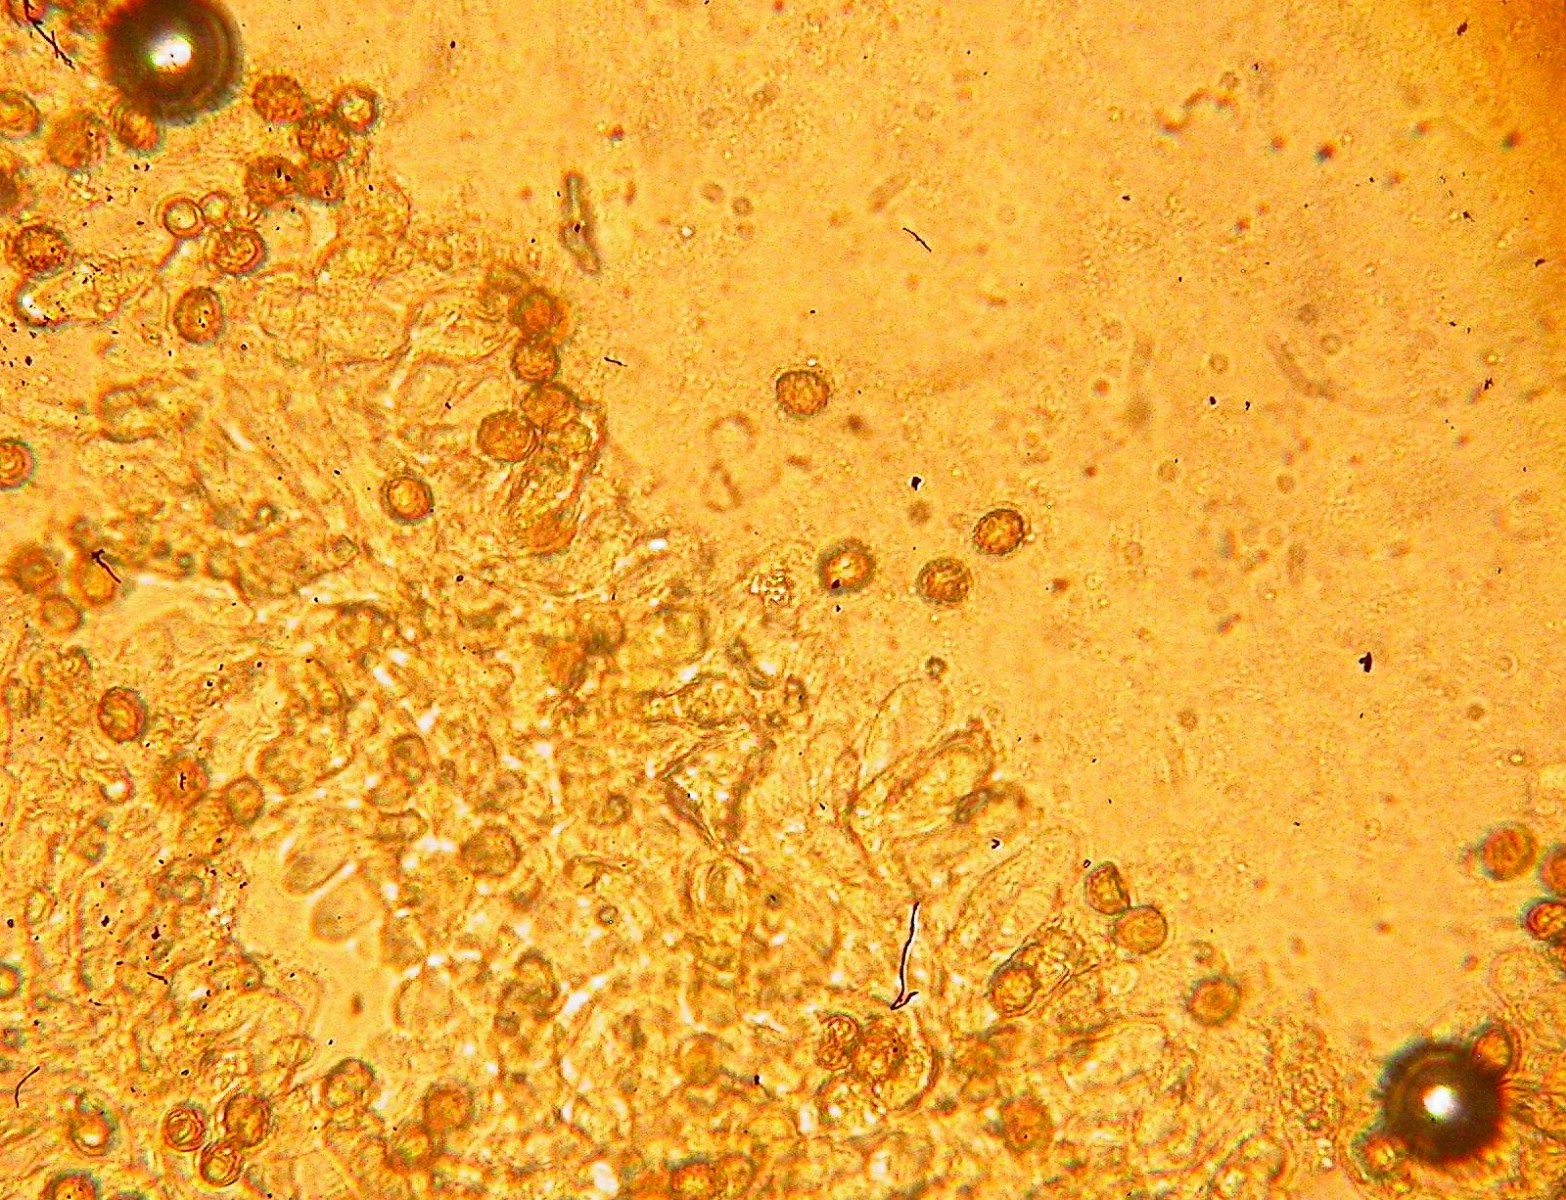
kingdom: Fungi
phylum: Basidiomycota
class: Agaricomycetes
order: Agaricales
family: Cortinariaceae
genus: Cortinarius
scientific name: Cortinarius
